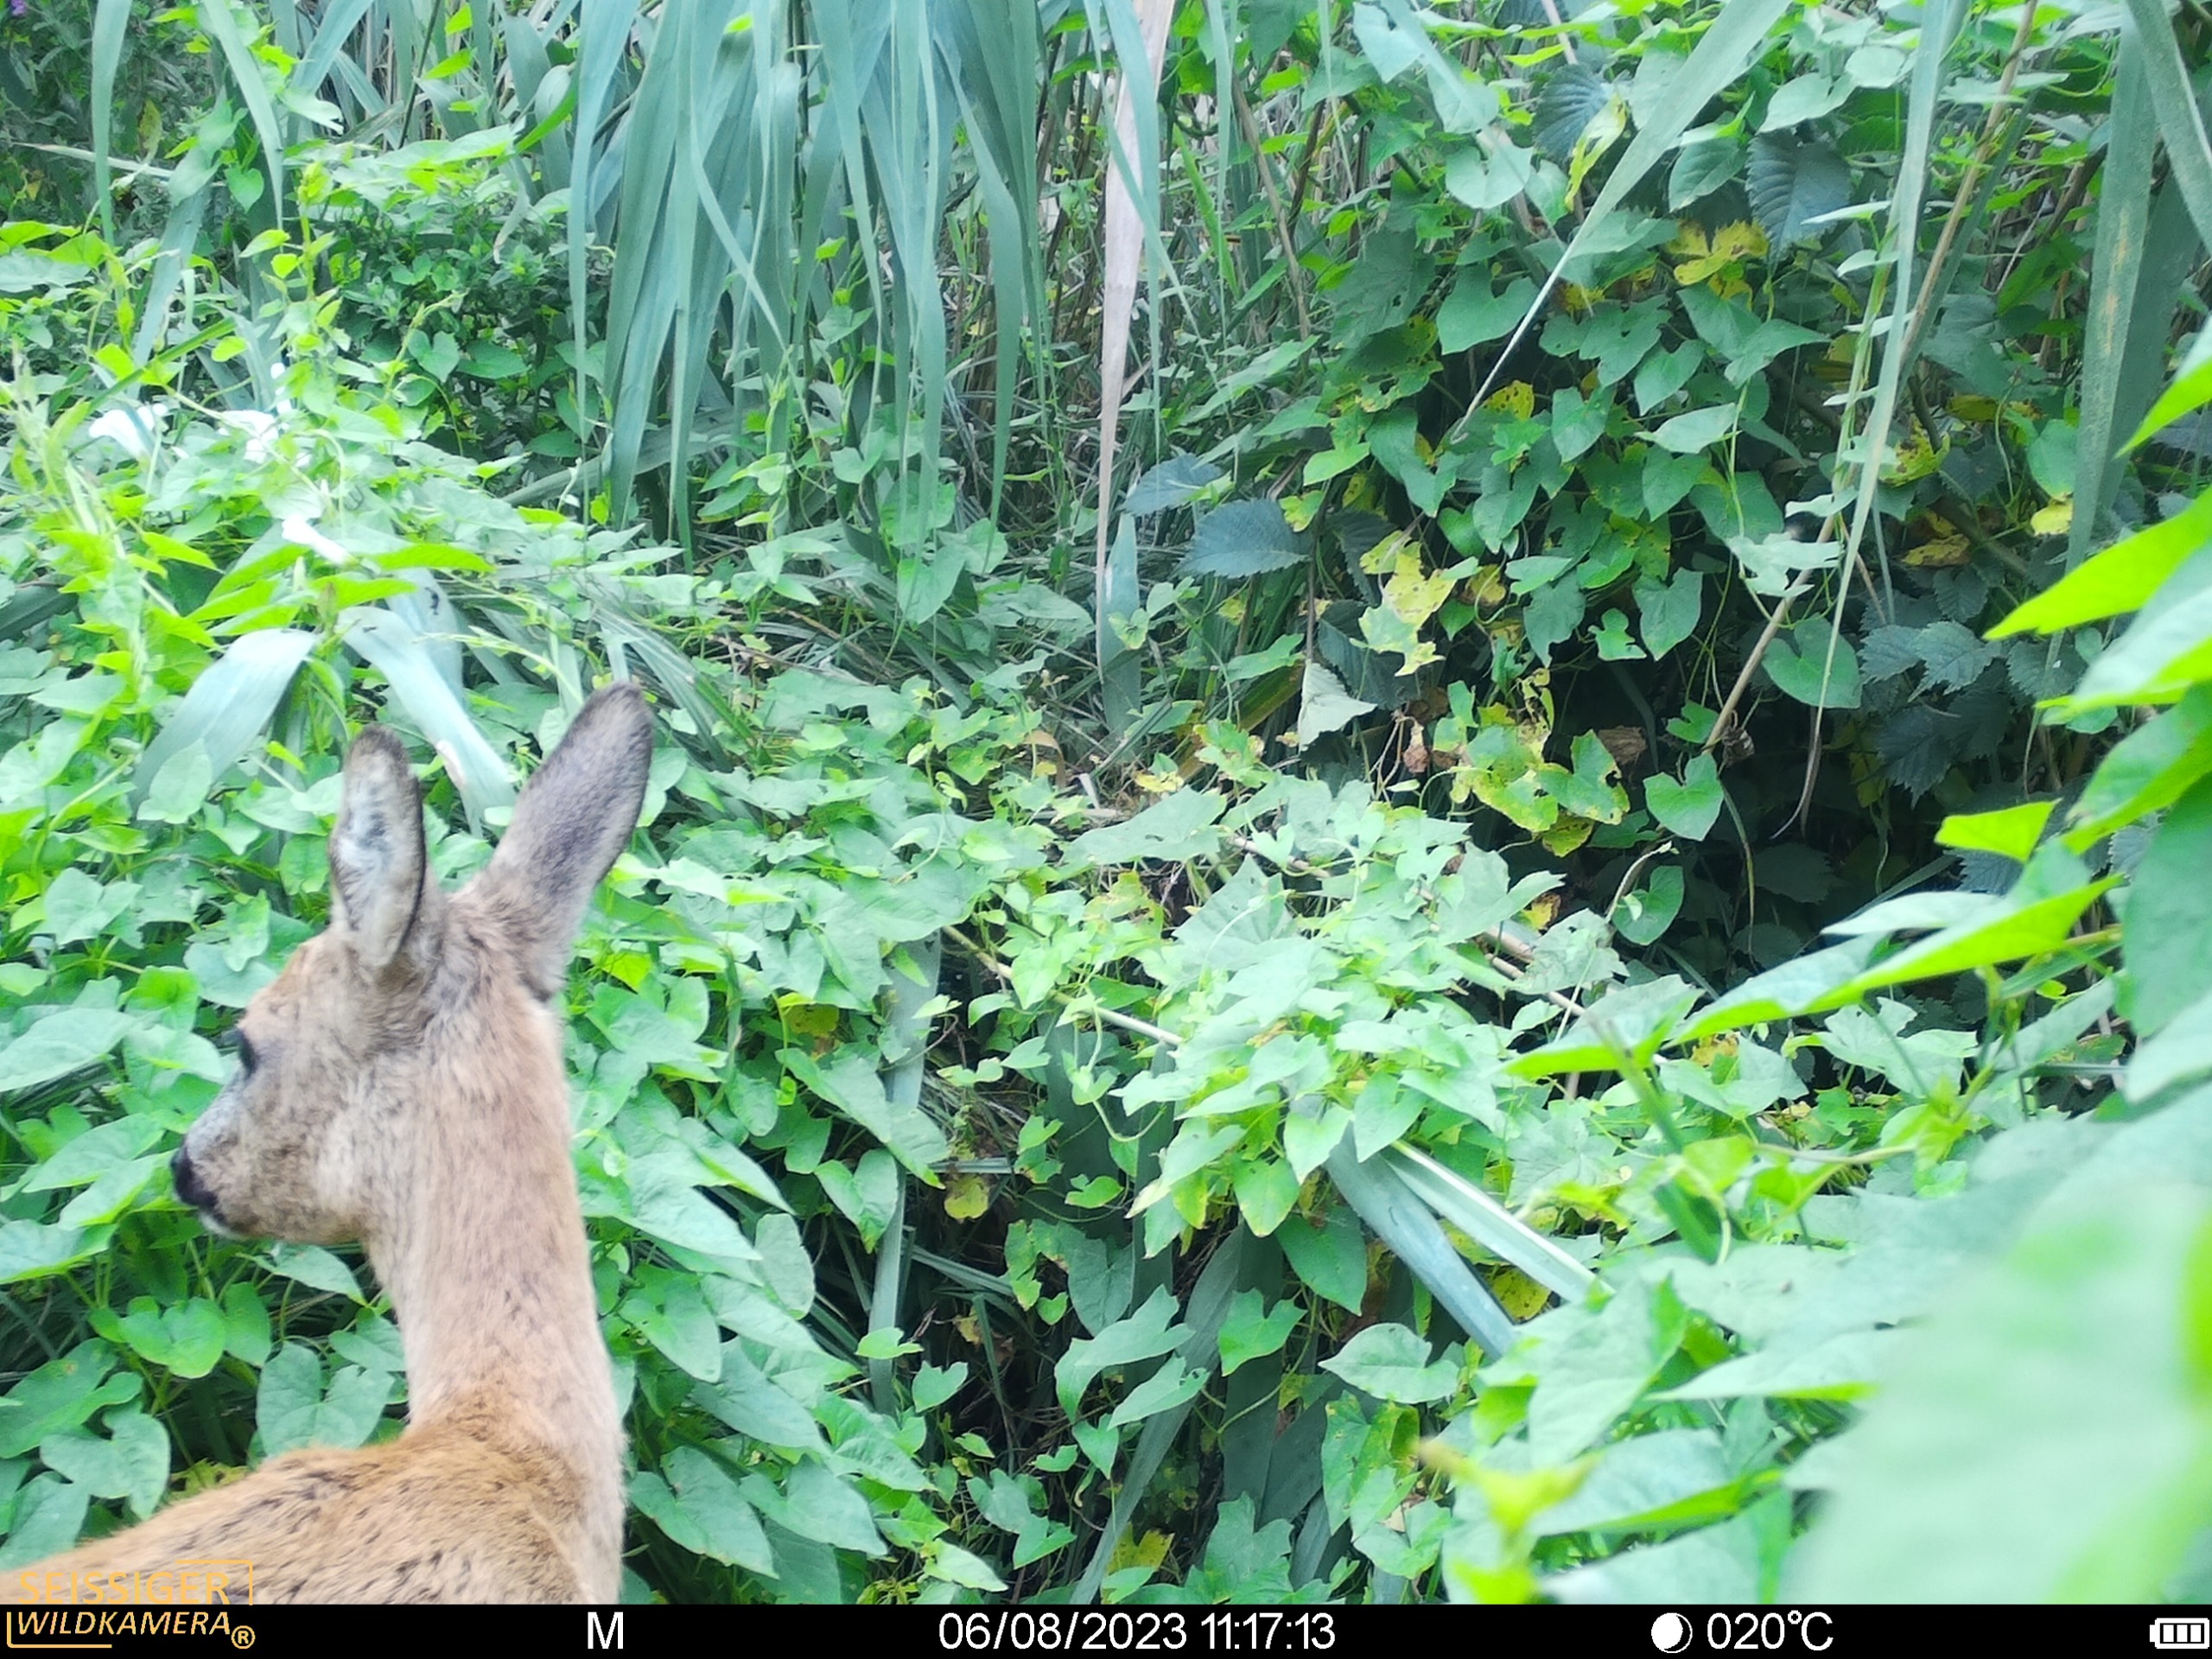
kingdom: Animalia
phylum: Chordata
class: Mammalia
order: Artiodactyla
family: Cervidae
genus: Capreolus
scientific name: Capreolus capreolus
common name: Rådyr
